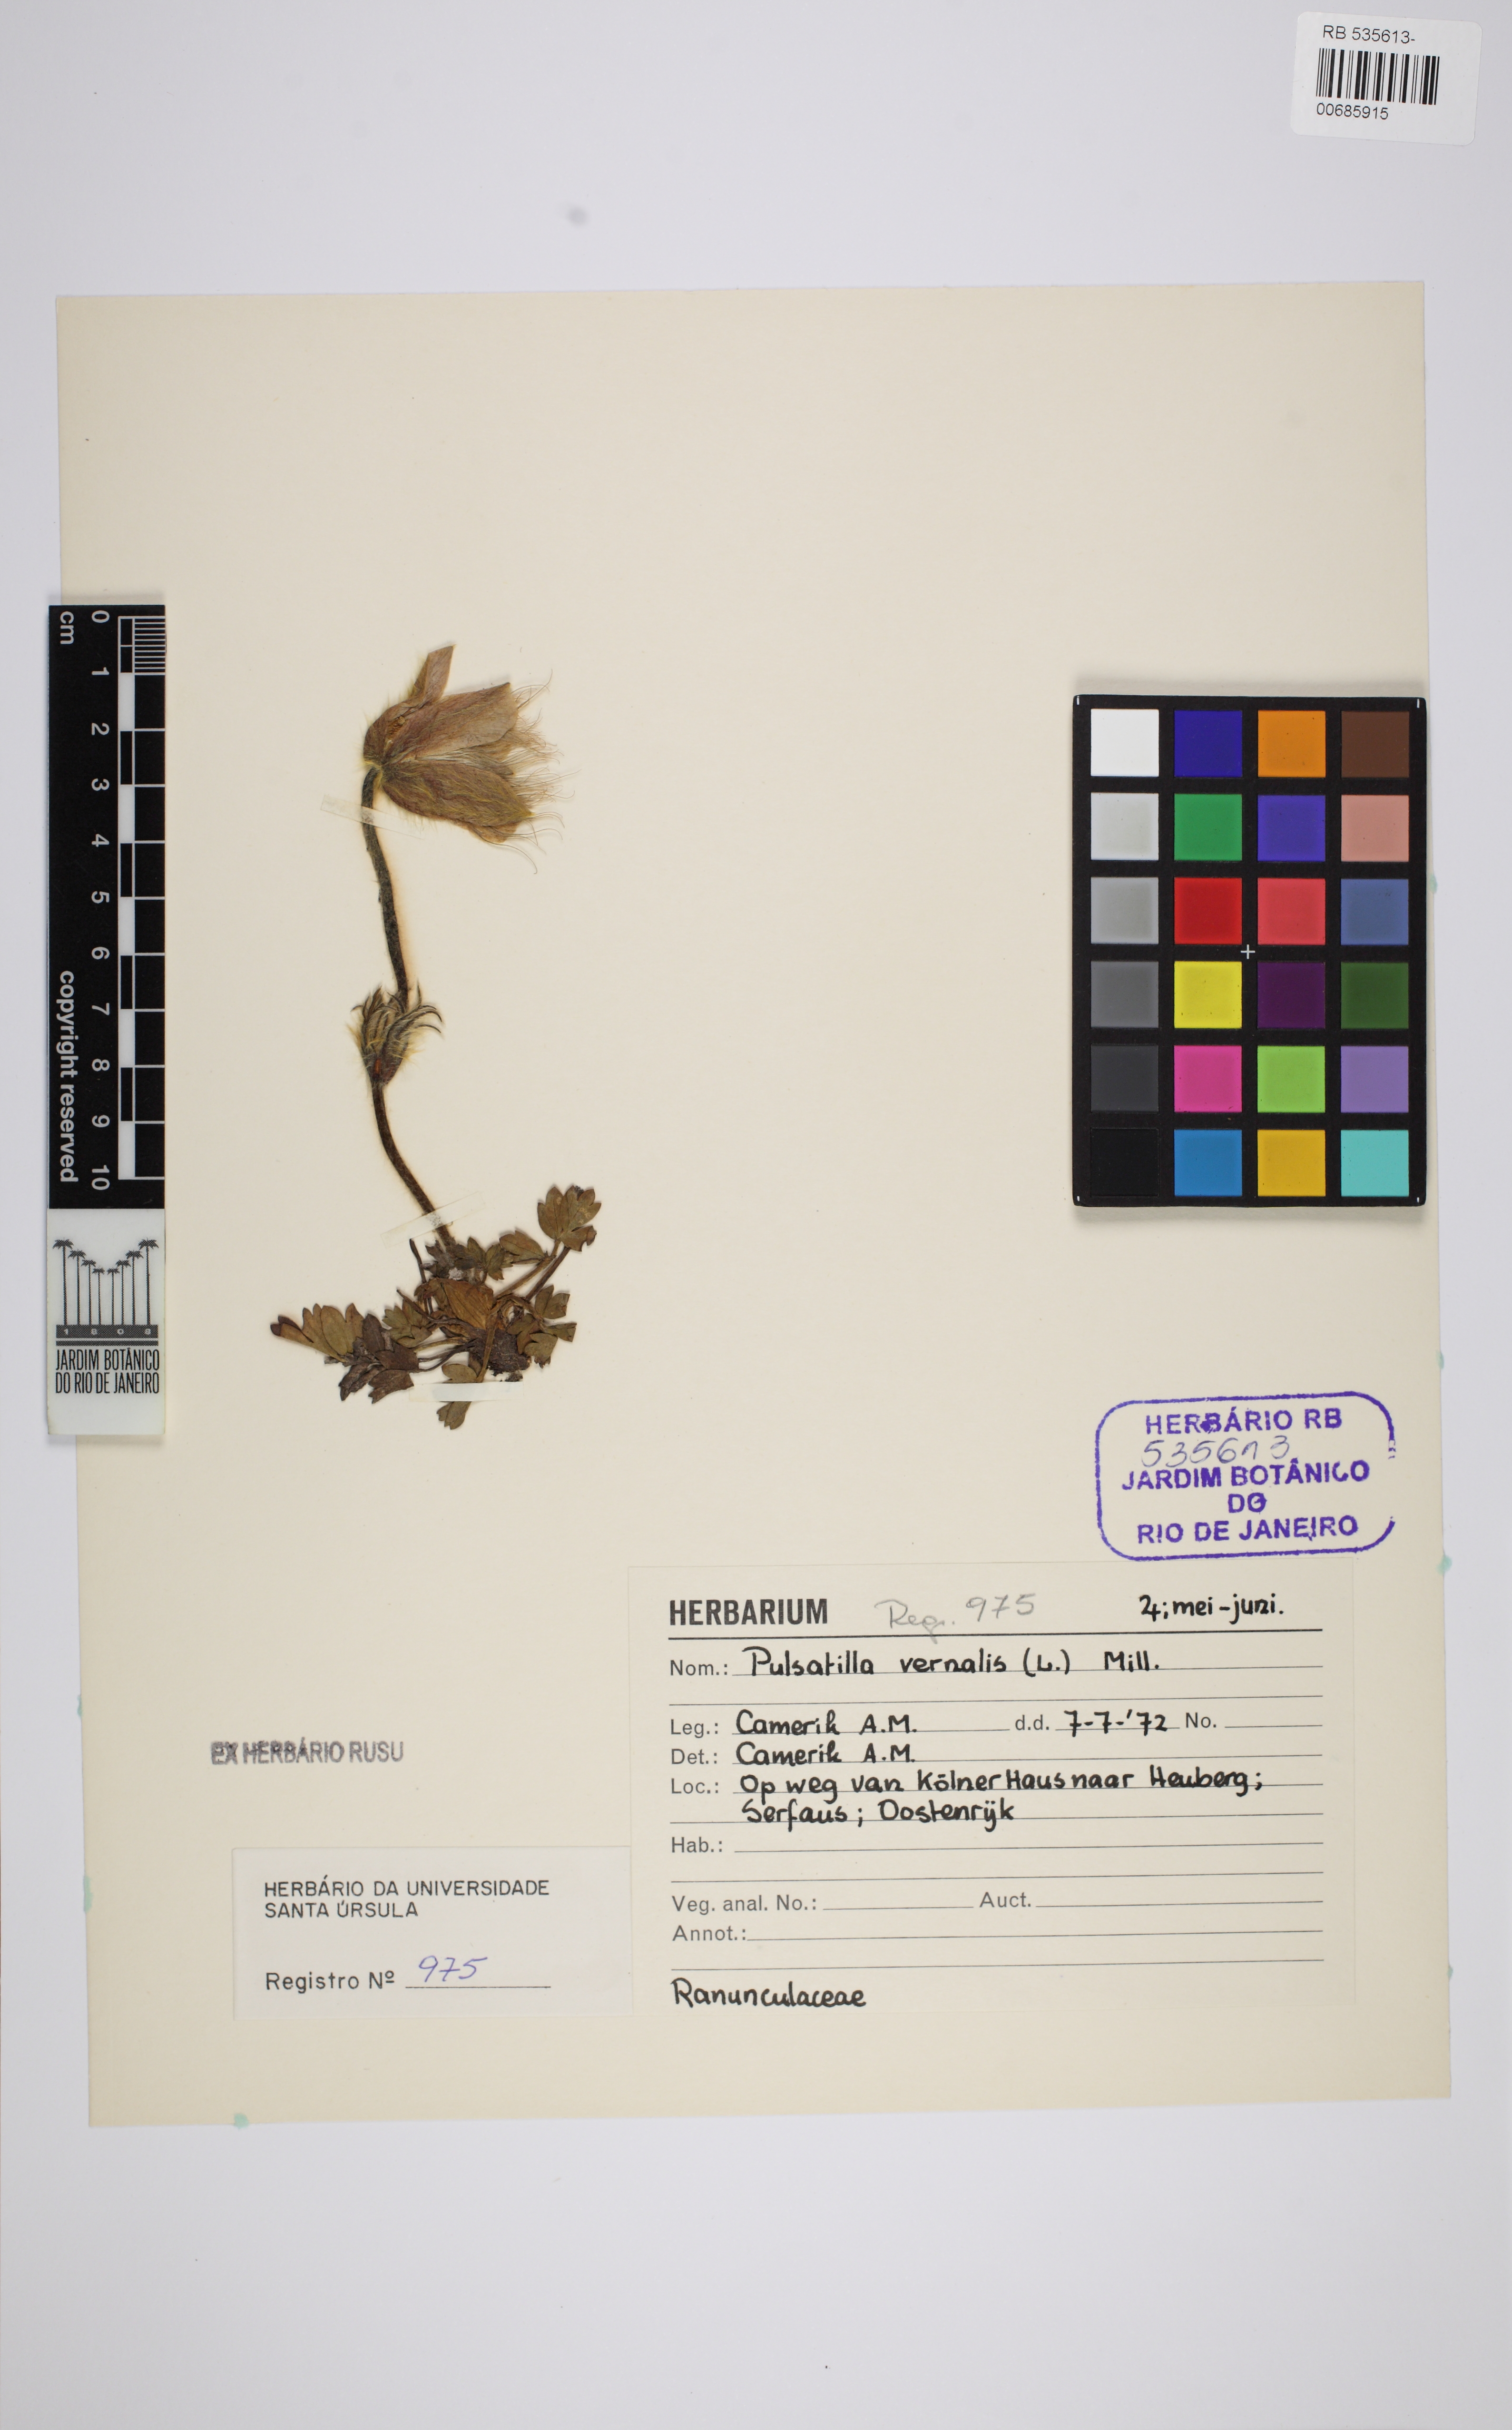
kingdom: Plantae
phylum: Tracheophyta
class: Magnoliopsida
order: Ranunculales
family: Ranunculaceae
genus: Pulsatilla
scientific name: Pulsatilla vernalis
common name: Spring pasque flower
